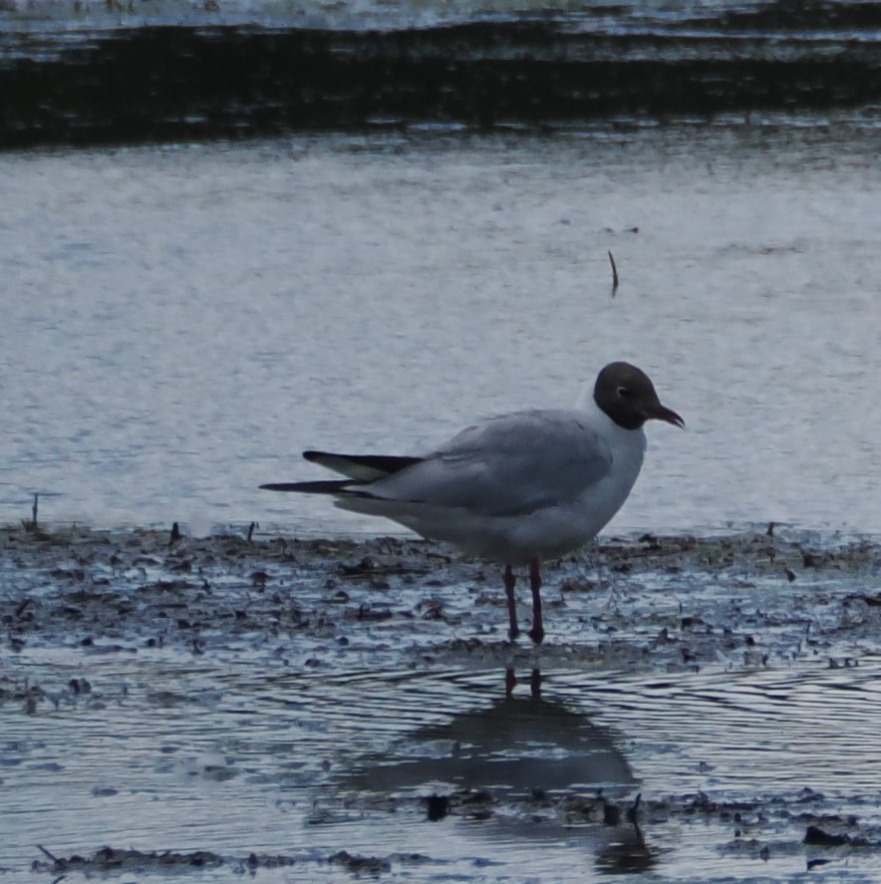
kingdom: Animalia
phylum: Chordata
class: Aves
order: Charadriiformes
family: Laridae
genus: Chroicocephalus
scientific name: Chroicocephalus ridibundus
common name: Hættemåge
